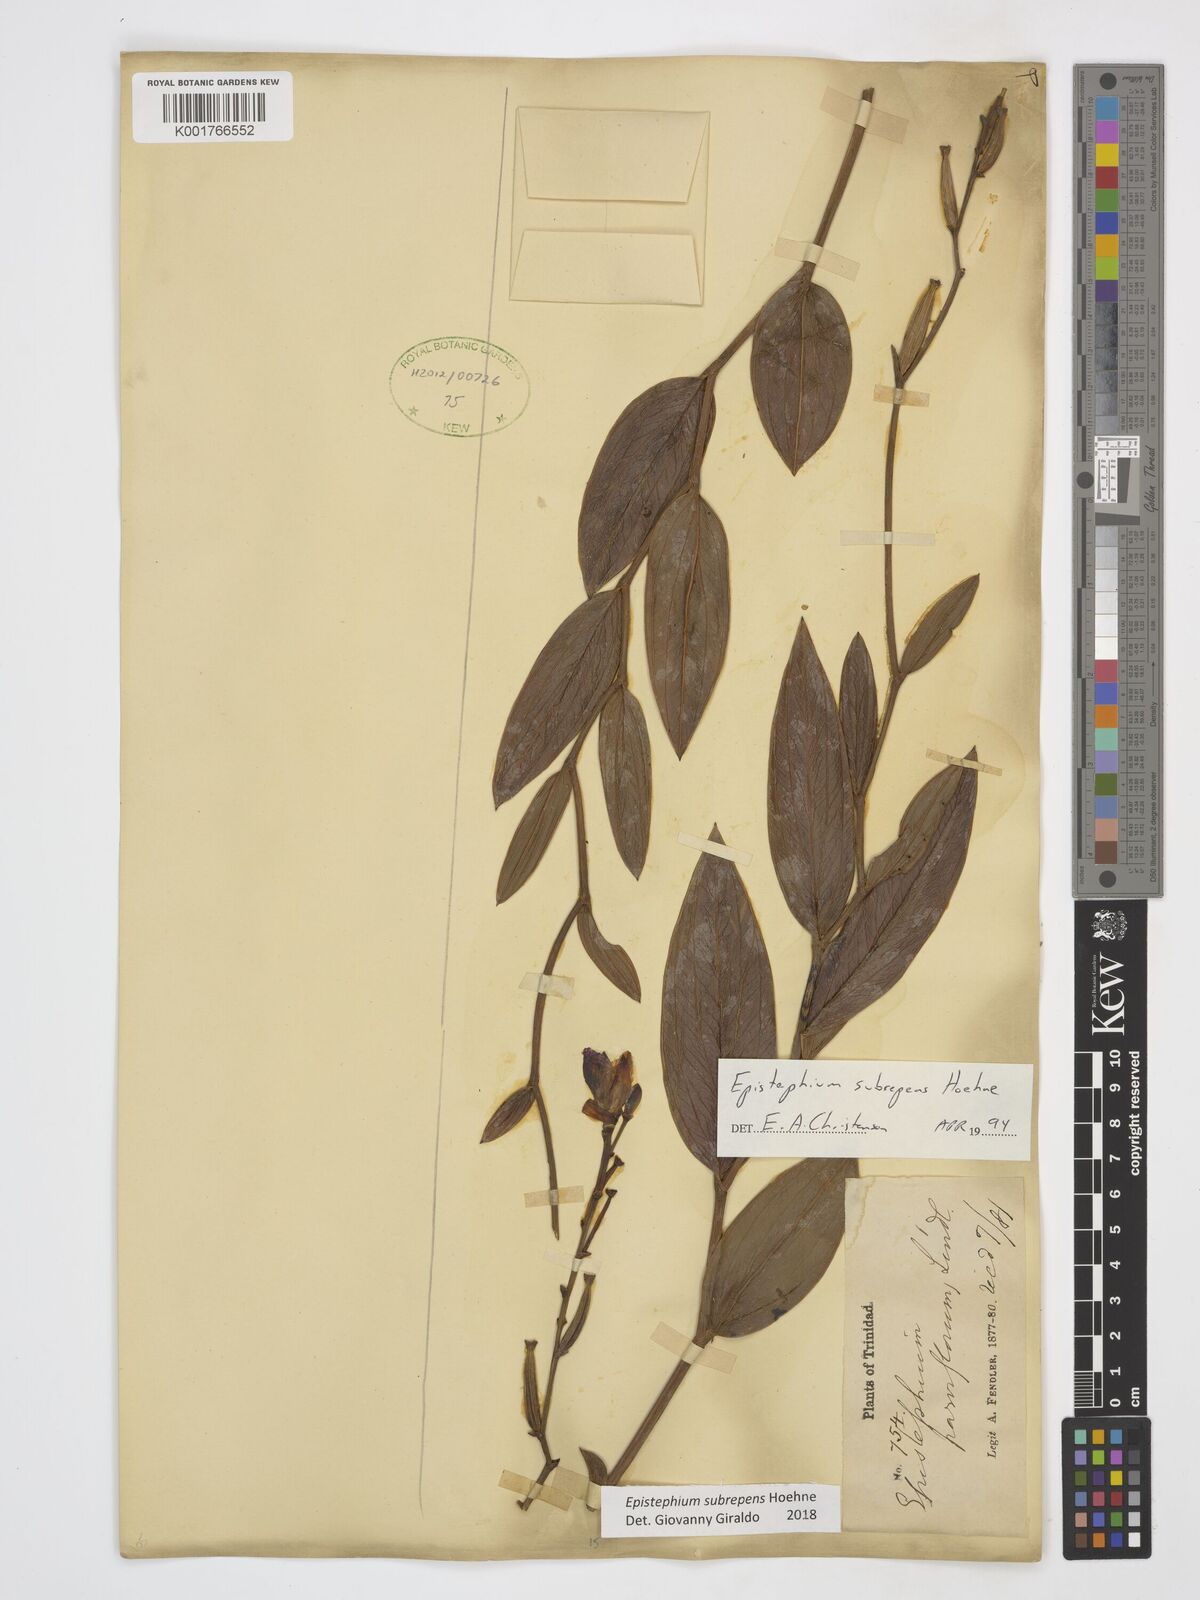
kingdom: Plantae
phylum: Tracheophyta
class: Liliopsida
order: Asparagales
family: Orchidaceae
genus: Epistephium
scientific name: Epistephium subrepens
